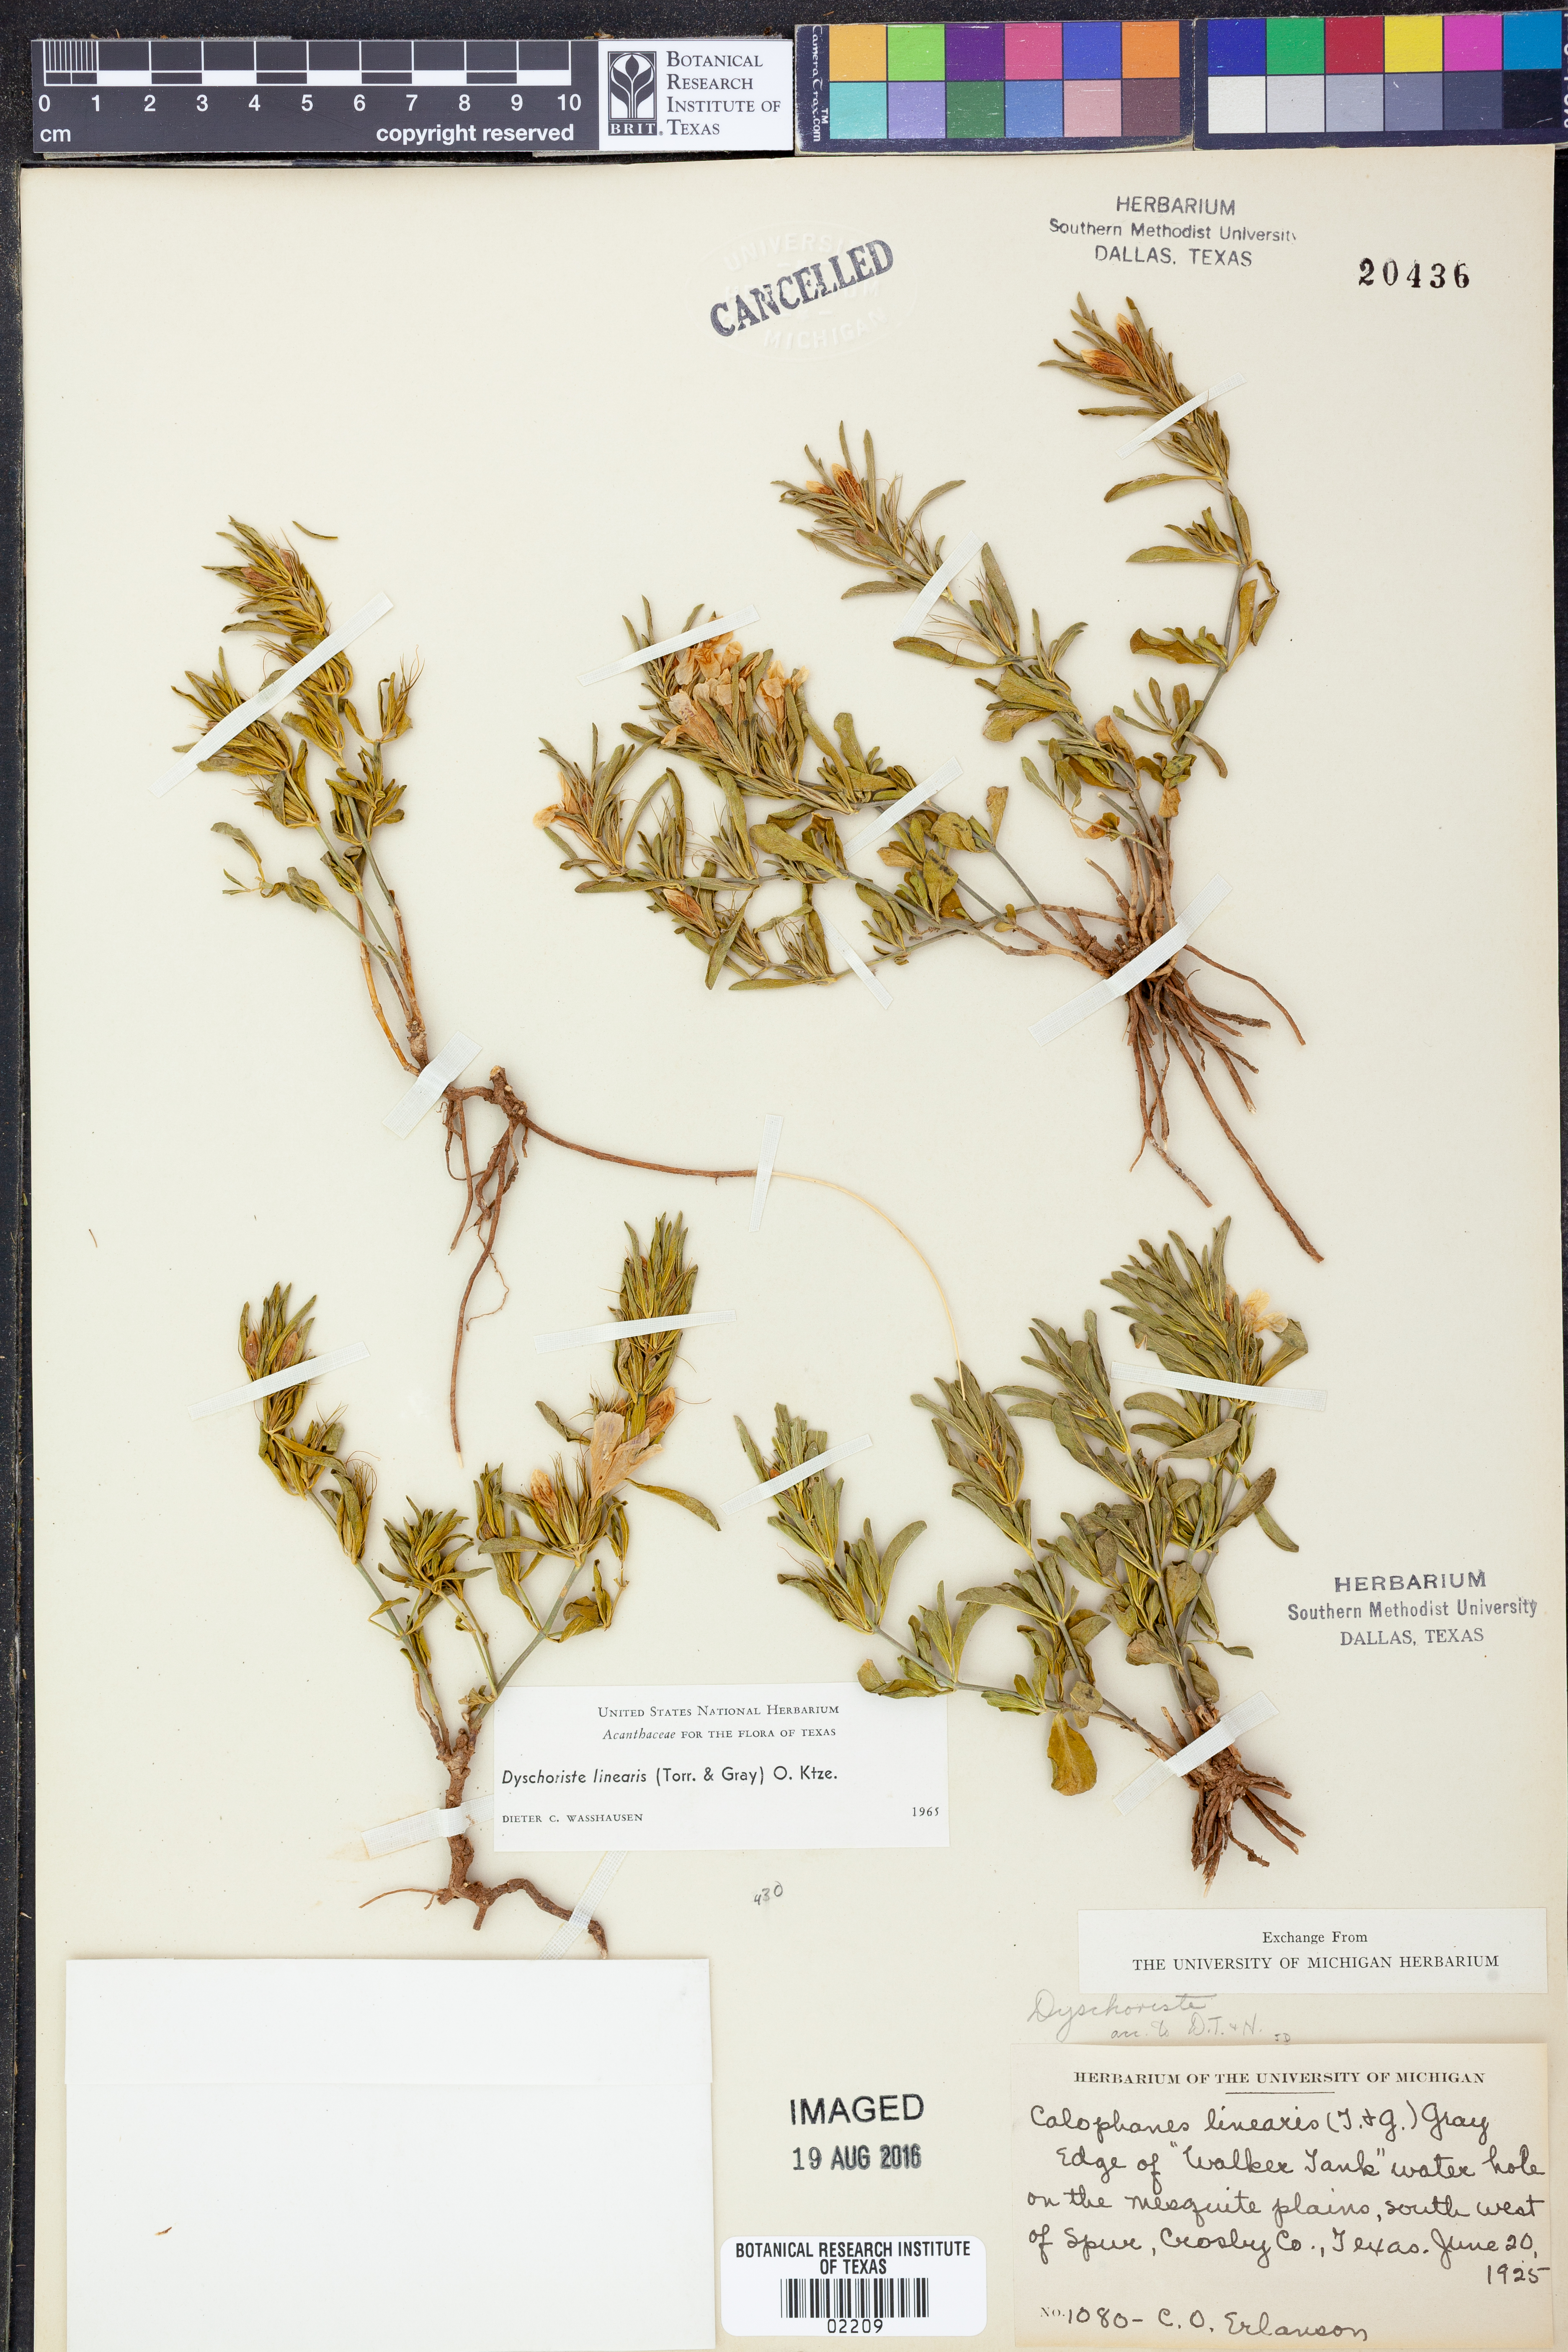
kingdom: Plantae
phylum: Tracheophyta
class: Magnoliopsida
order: Lamiales
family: Acanthaceae
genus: Dyschoriste
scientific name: Dyschoriste linearis
